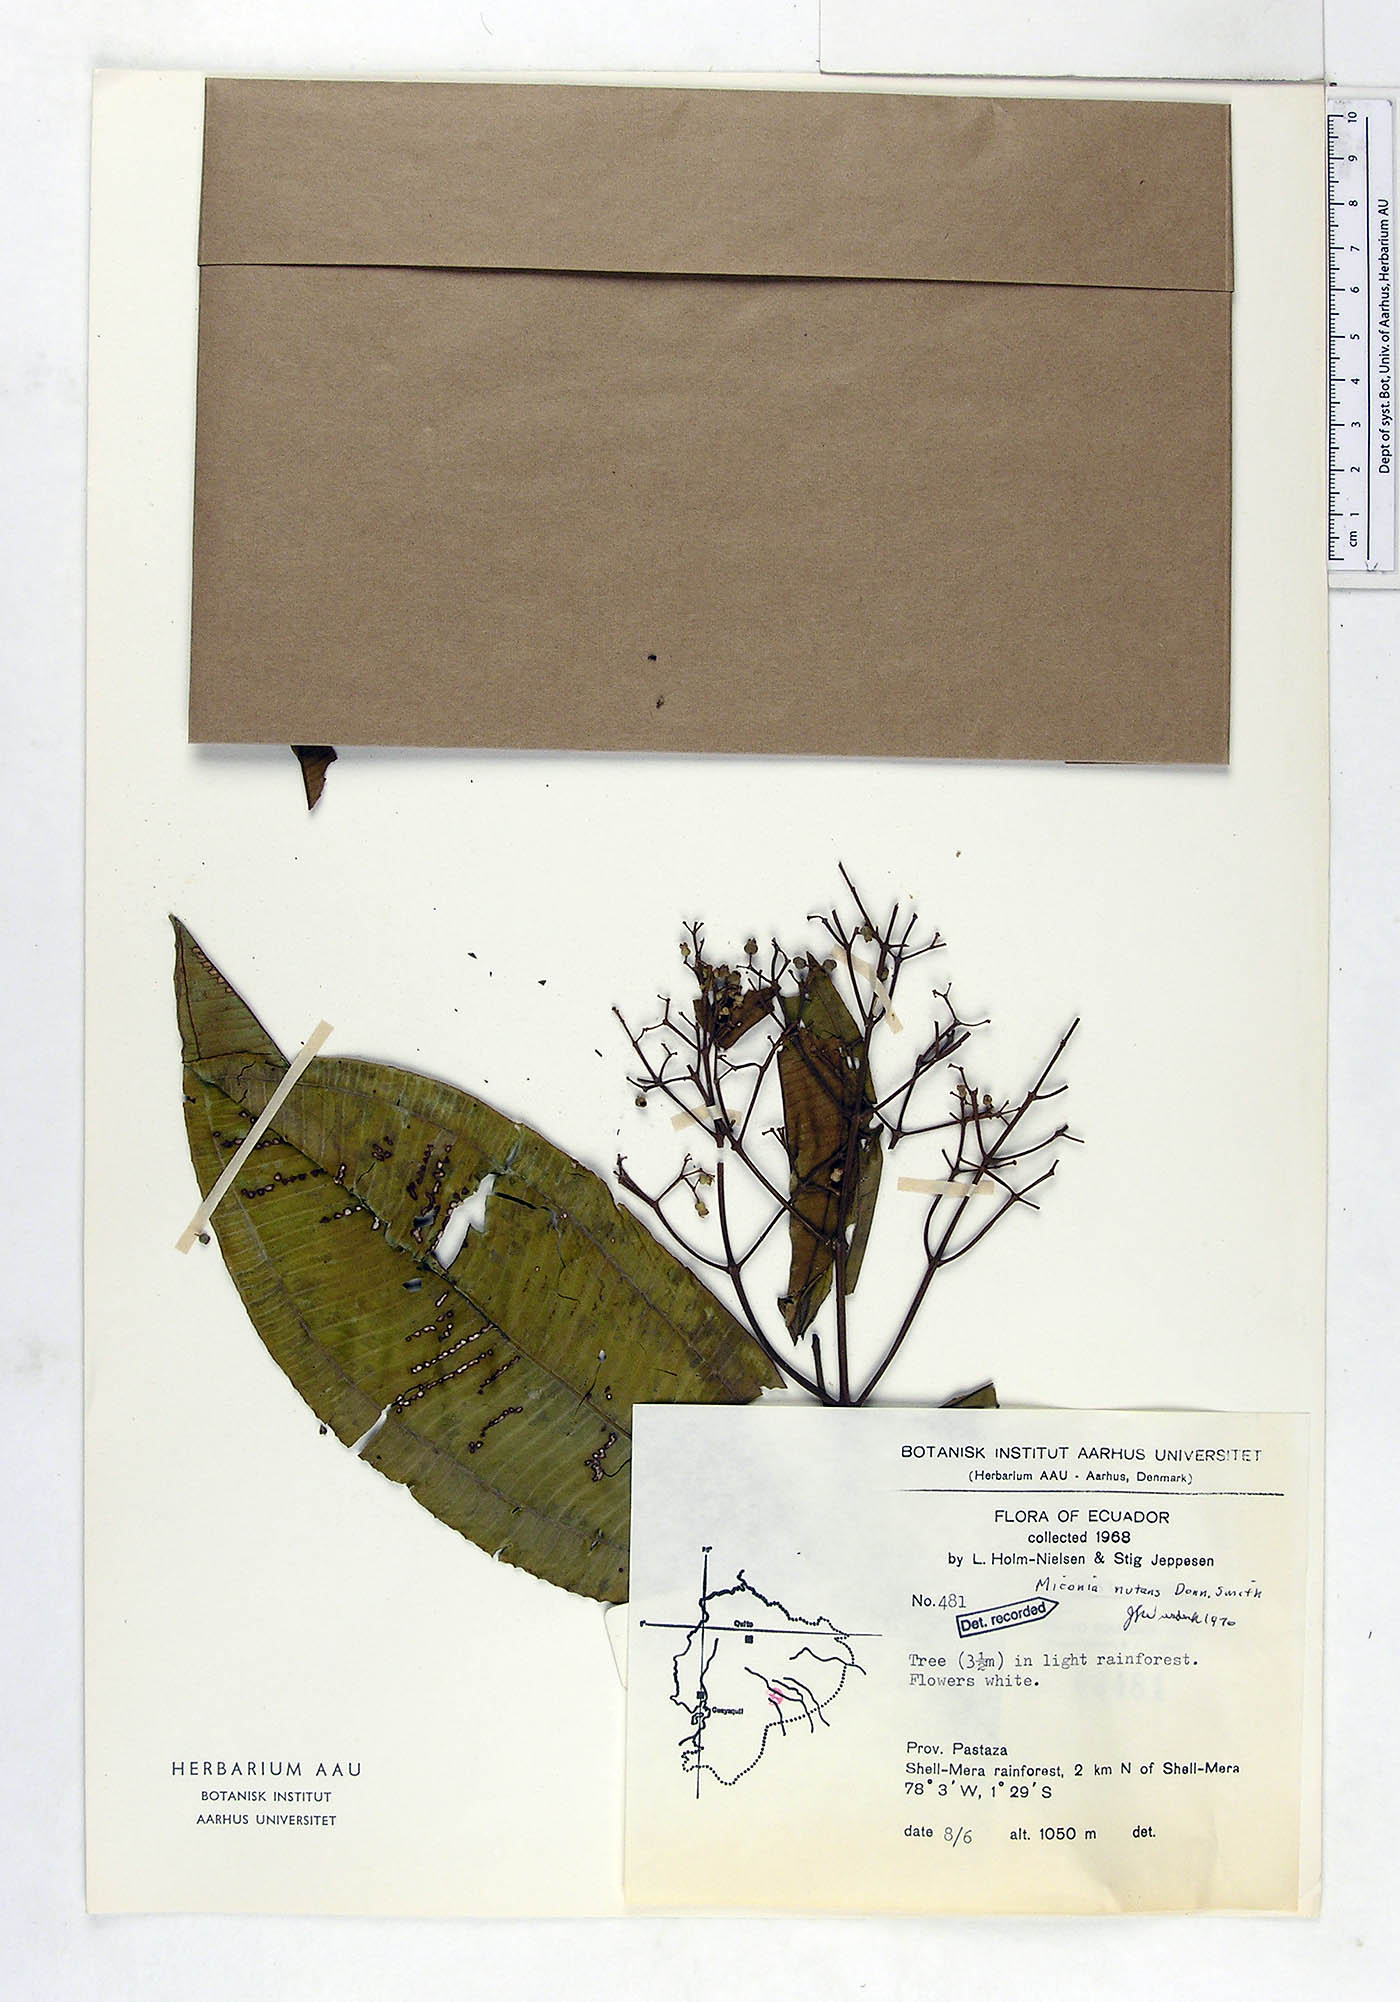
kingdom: Plantae
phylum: Tracheophyta
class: Magnoliopsida
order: Myrtales
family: Melastomataceae
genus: Miconia
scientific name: Miconia nutans
